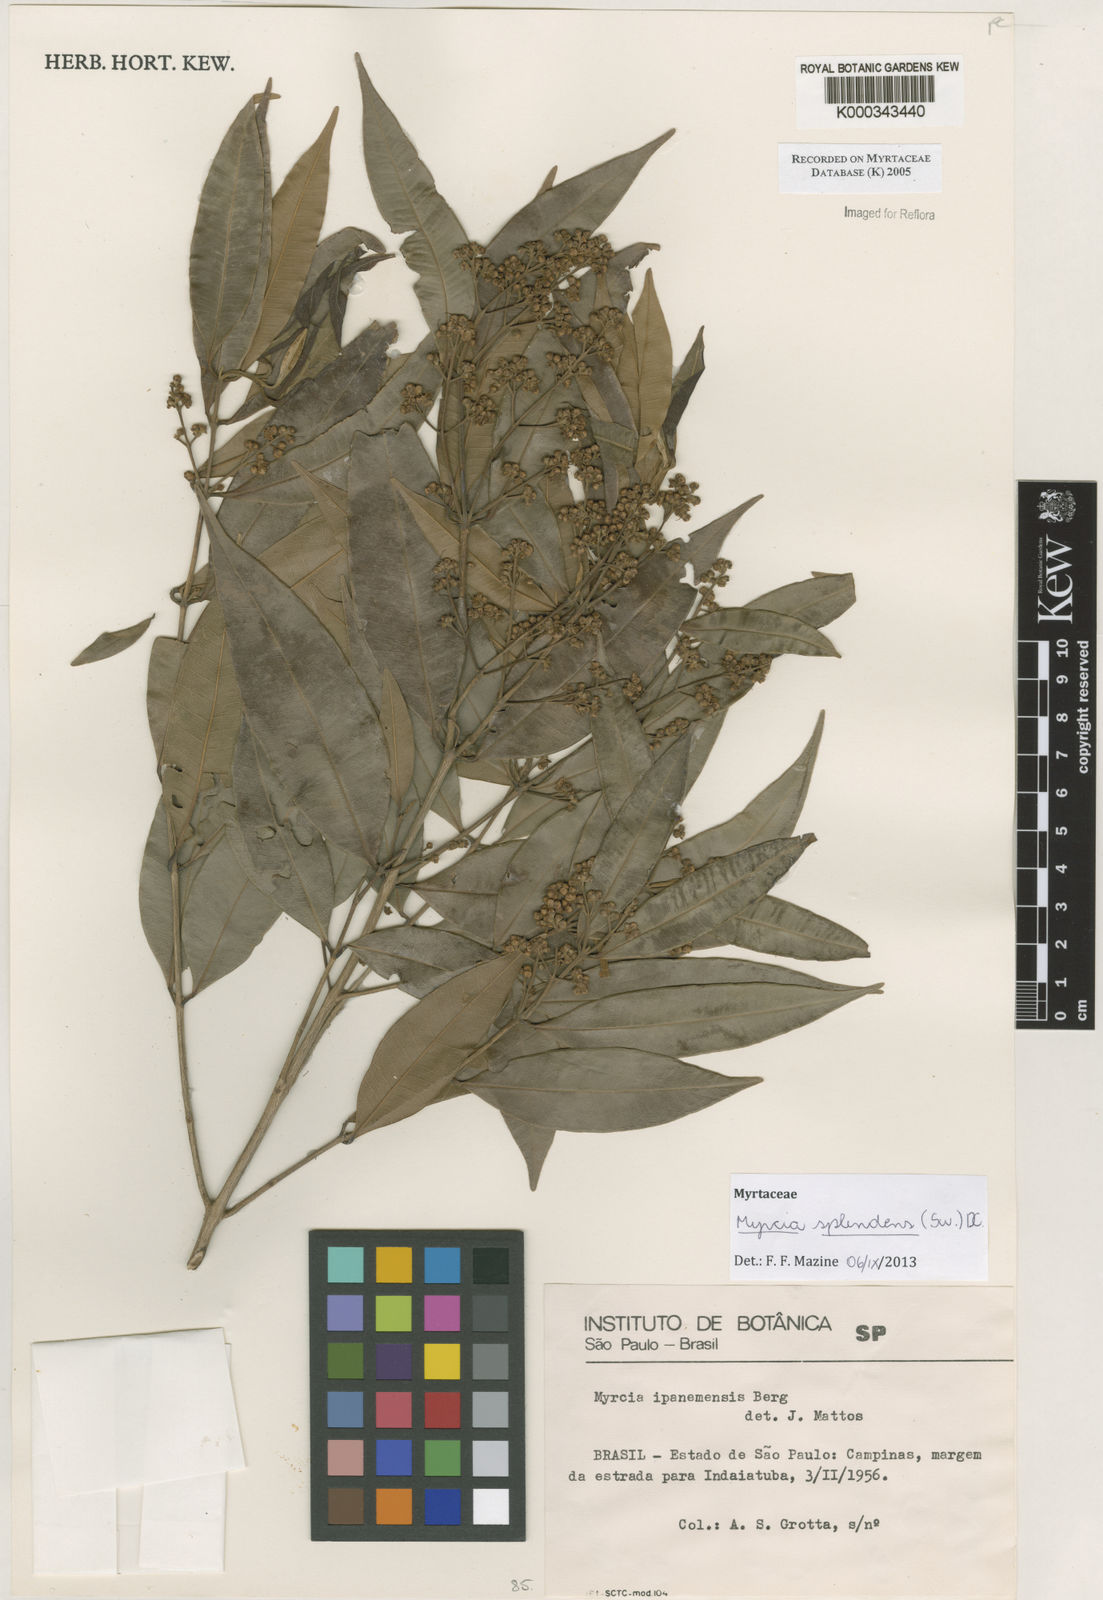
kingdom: Plantae
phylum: Tracheophyta
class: Magnoliopsida
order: Myrtales
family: Myrtaceae
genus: Myrcia
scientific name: Myrcia splendens
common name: Surinam cherry
